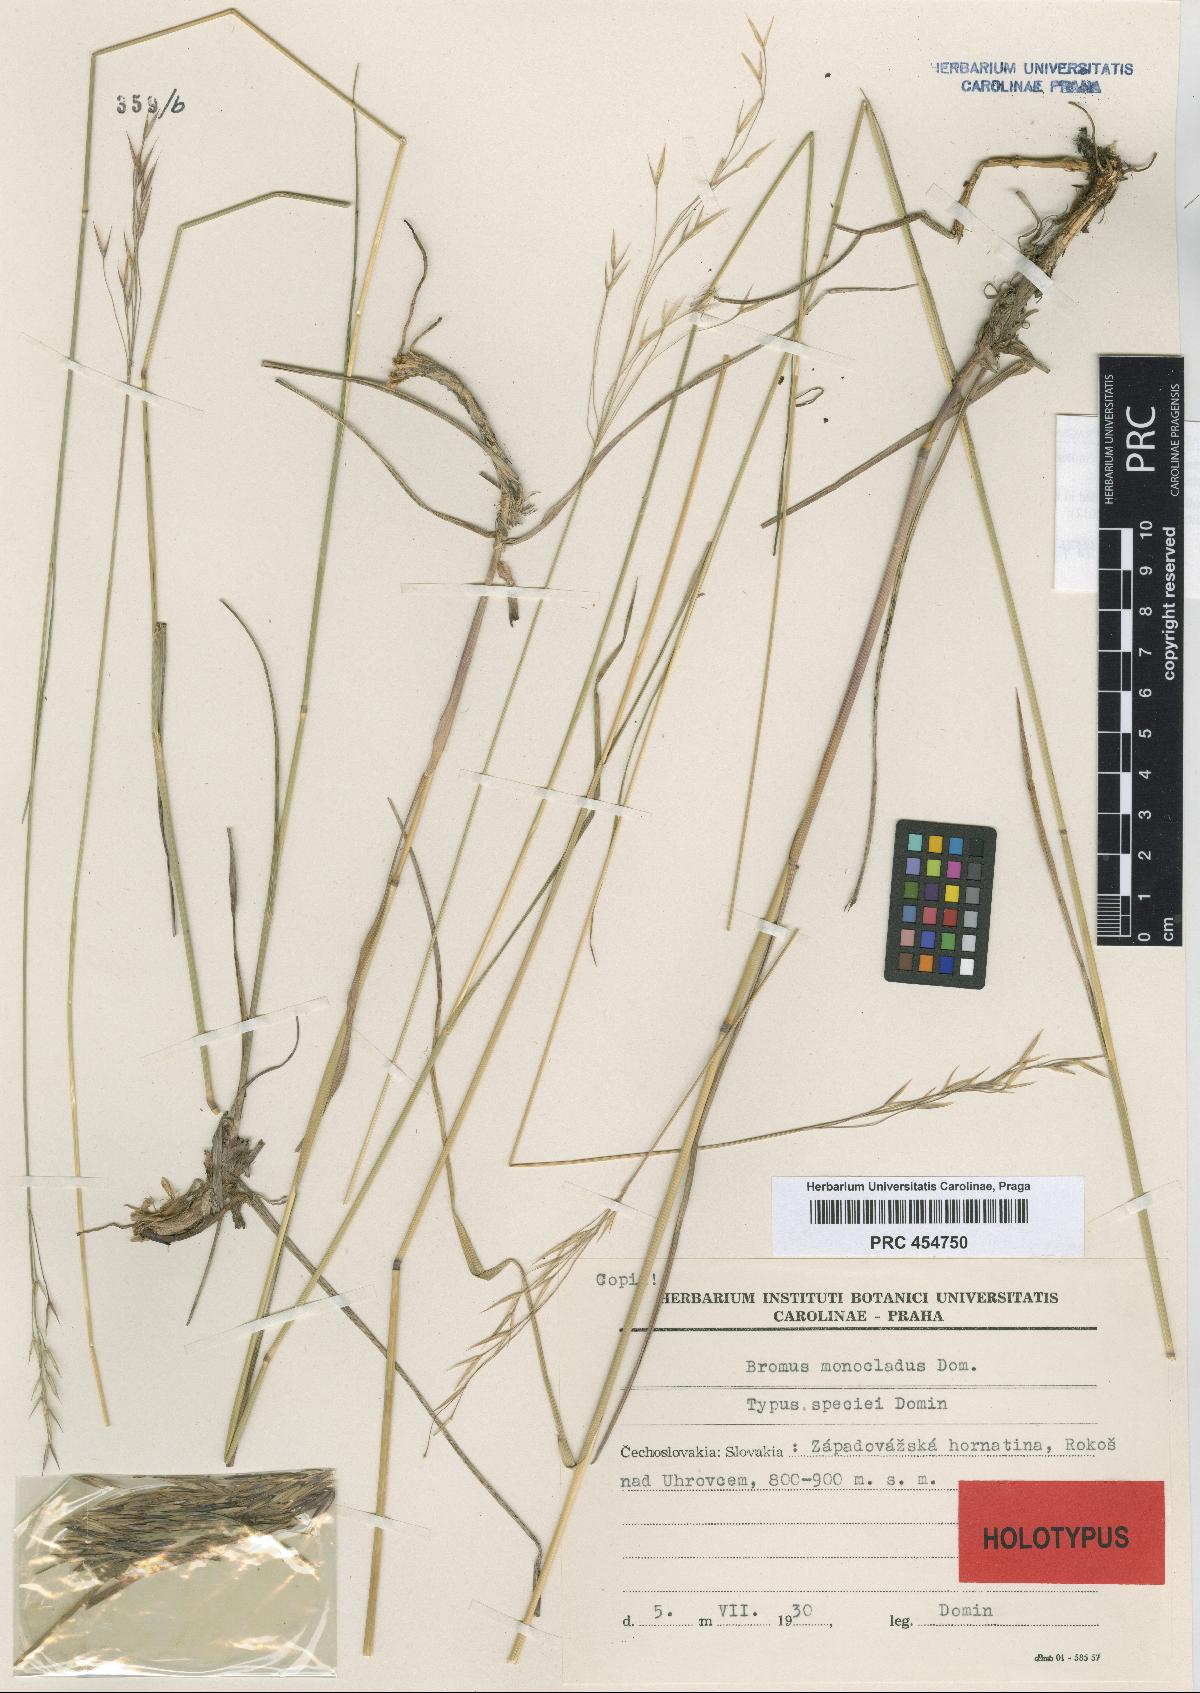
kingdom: Plantae
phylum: Tracheophyta
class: Liliopsida
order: Poales
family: Poaceae
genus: Bromus
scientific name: Bromus pannonicus
